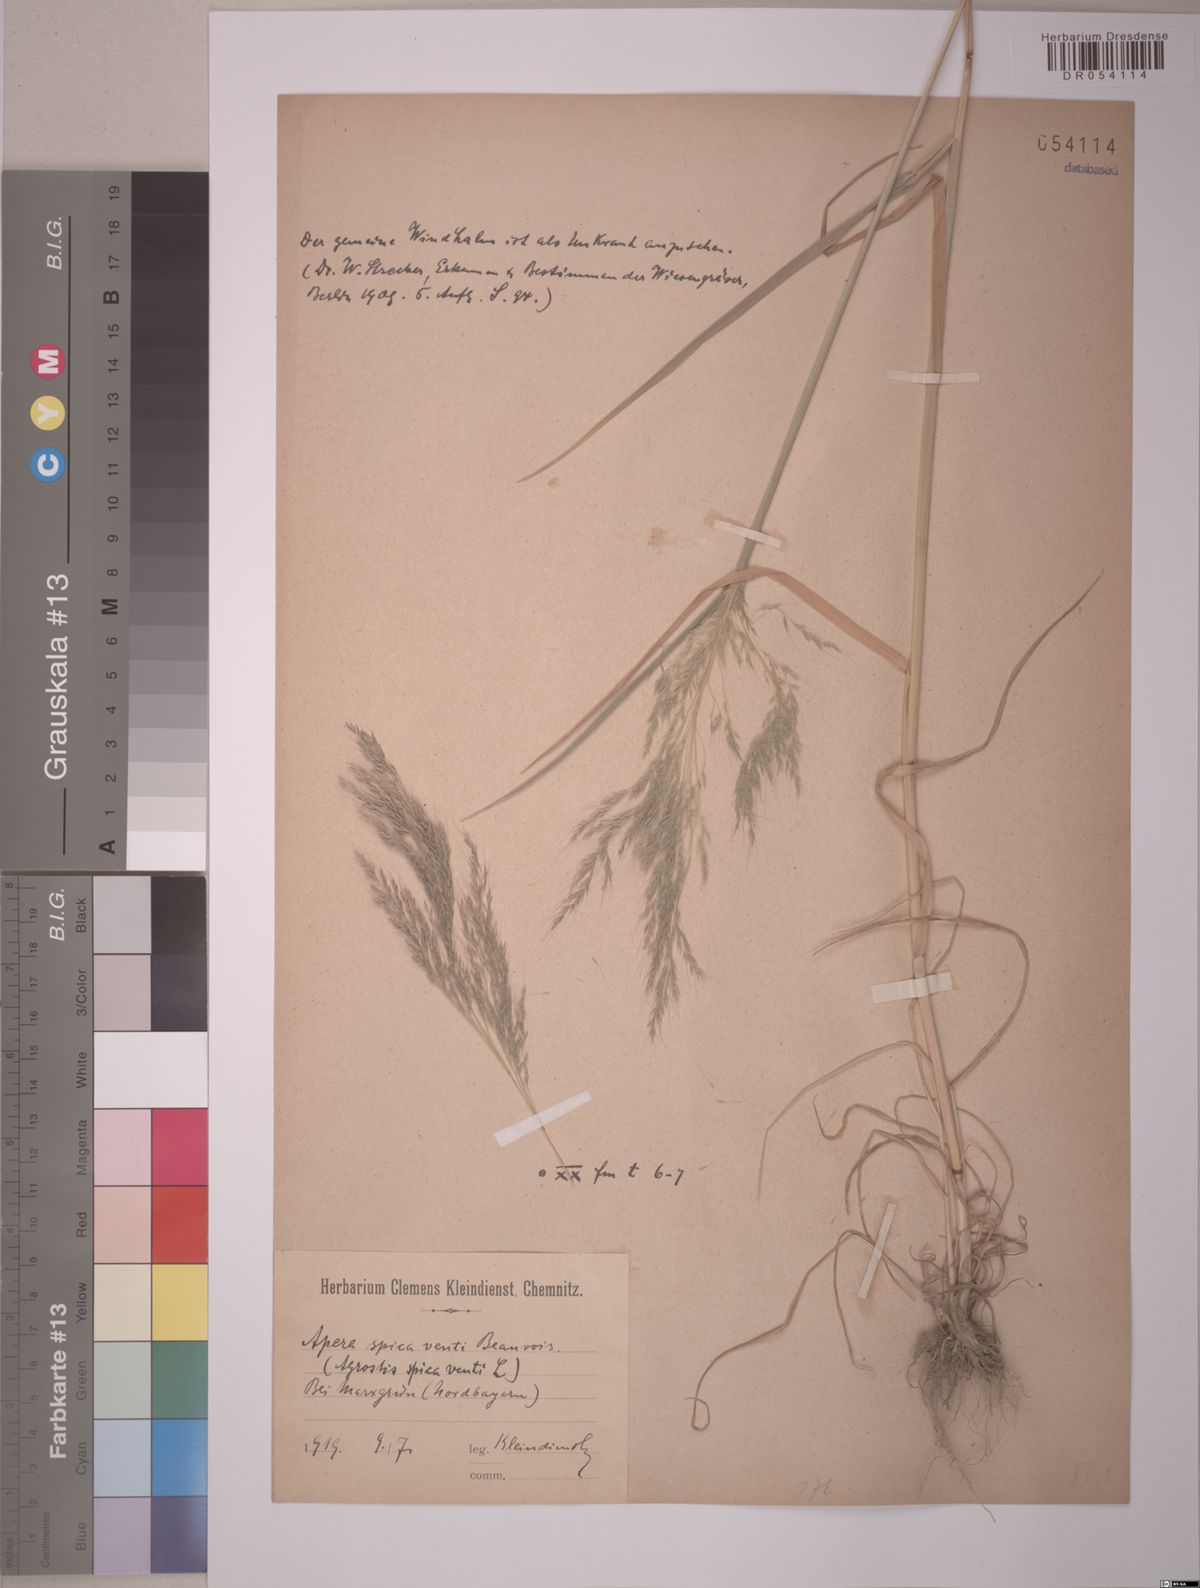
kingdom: Plantae
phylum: Tracheophyta
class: Liliopsida
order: Poales
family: Poaceae
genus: Apera
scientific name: Apera spica-venti
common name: Loose silky-bent
